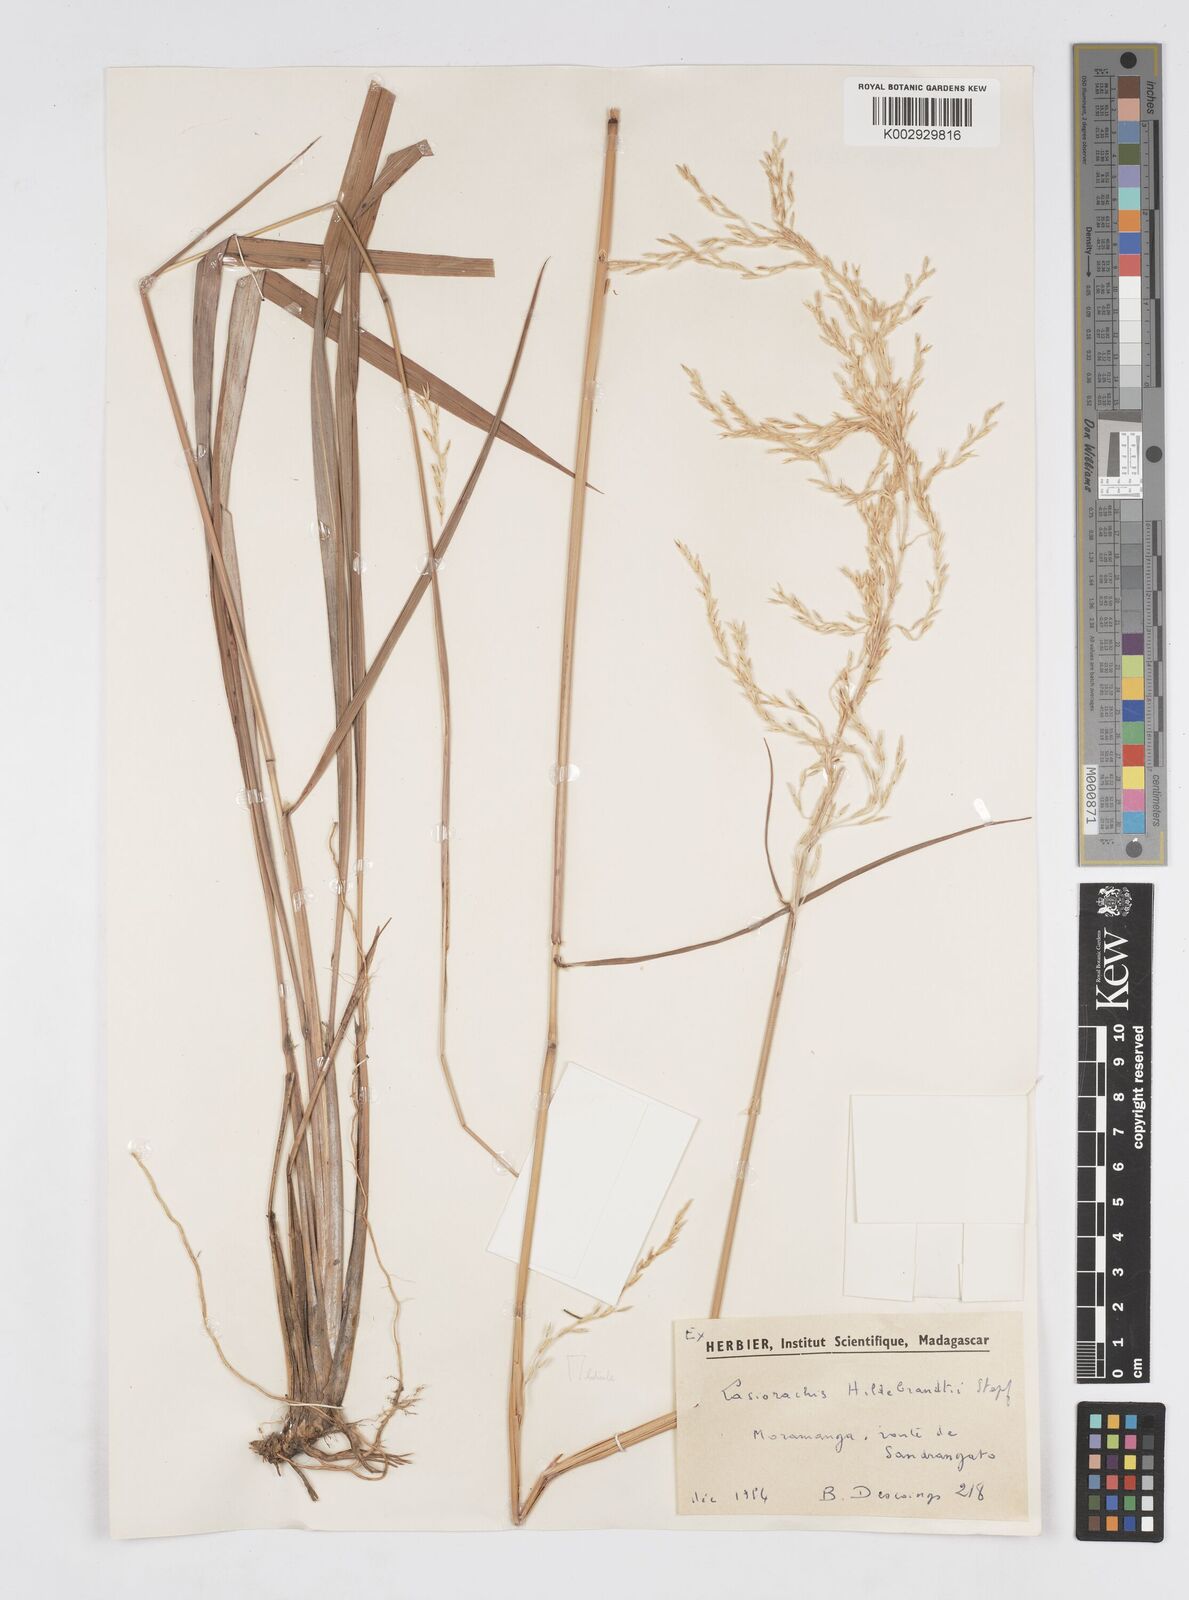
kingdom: Plantae
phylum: Tracheophyta
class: Liliopsida
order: Poales
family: Poaceae
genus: Lasiorhachis
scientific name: Lasiorhachis hildebrandtii
